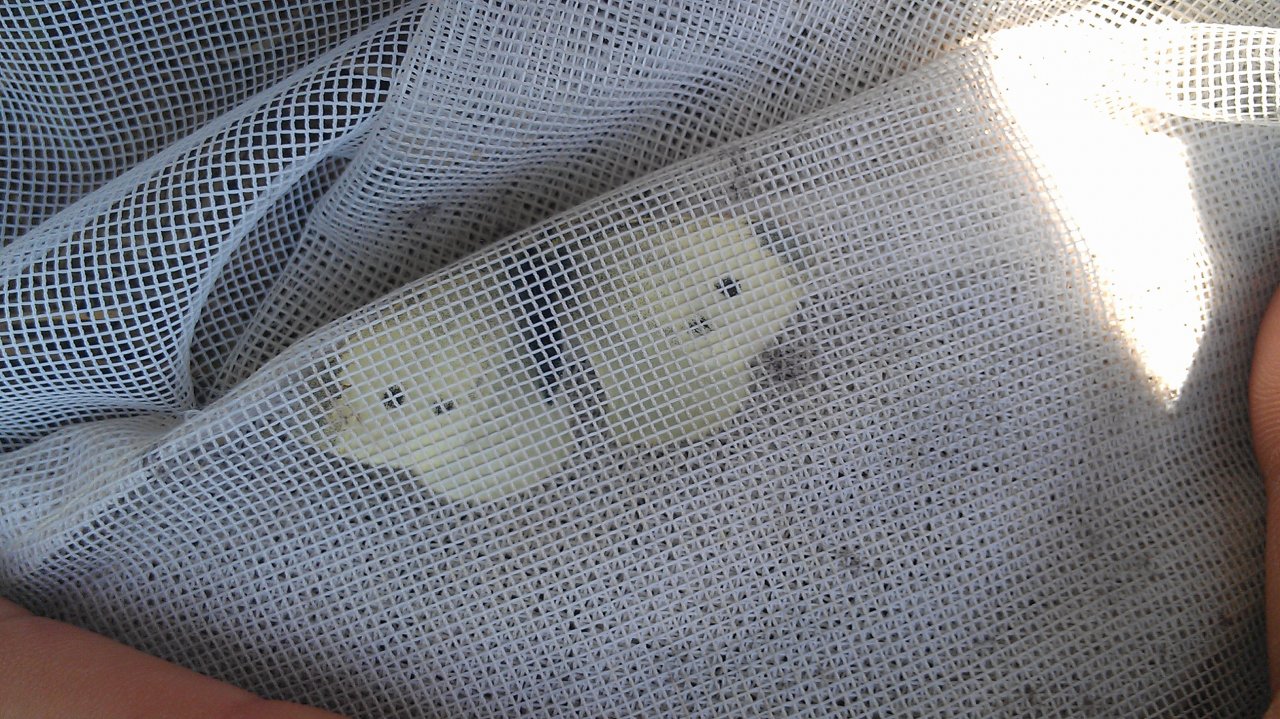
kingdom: Animalia
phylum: Arthropoda
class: Insecta
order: Lepidoptera
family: Pieridae
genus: Pieris
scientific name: Pieris rapae
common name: Cabbage White
